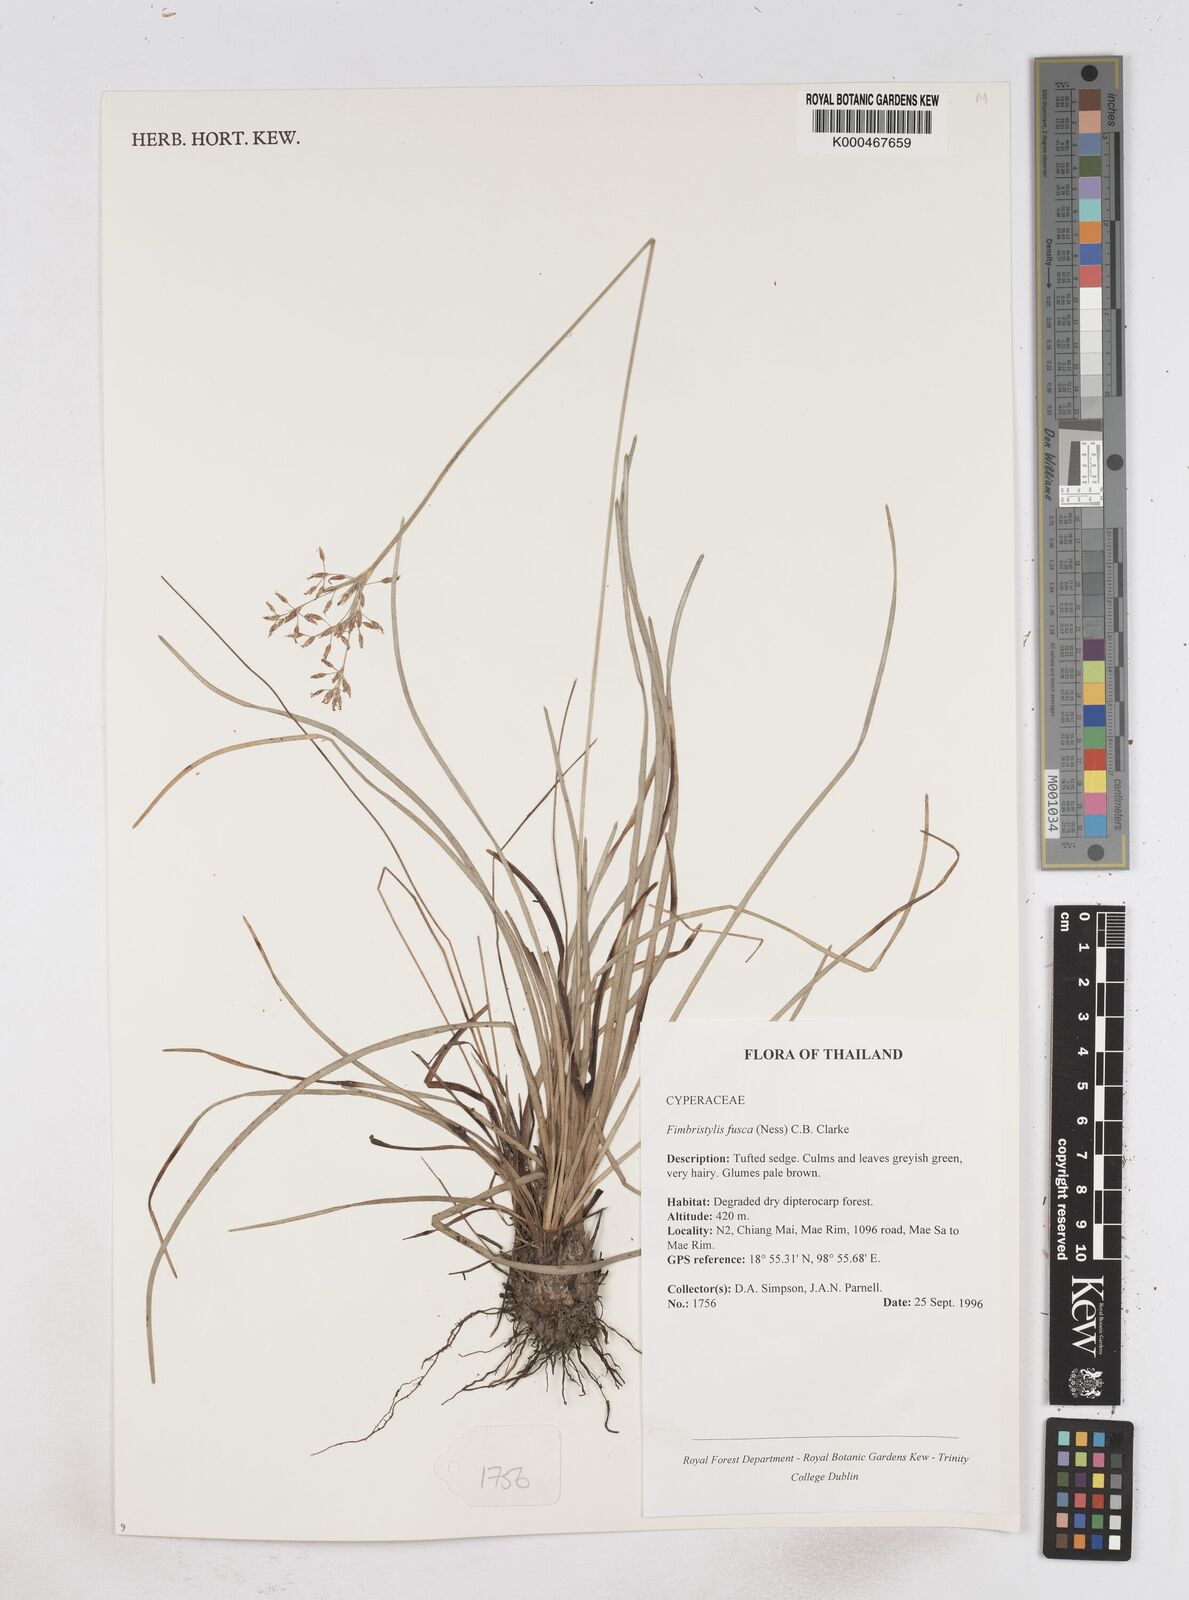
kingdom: Plantae
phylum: Tracheophyta
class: Liliopsida
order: Poales
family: Cyperaceae
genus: Fimbristylis
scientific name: Fimbristylis fusca
